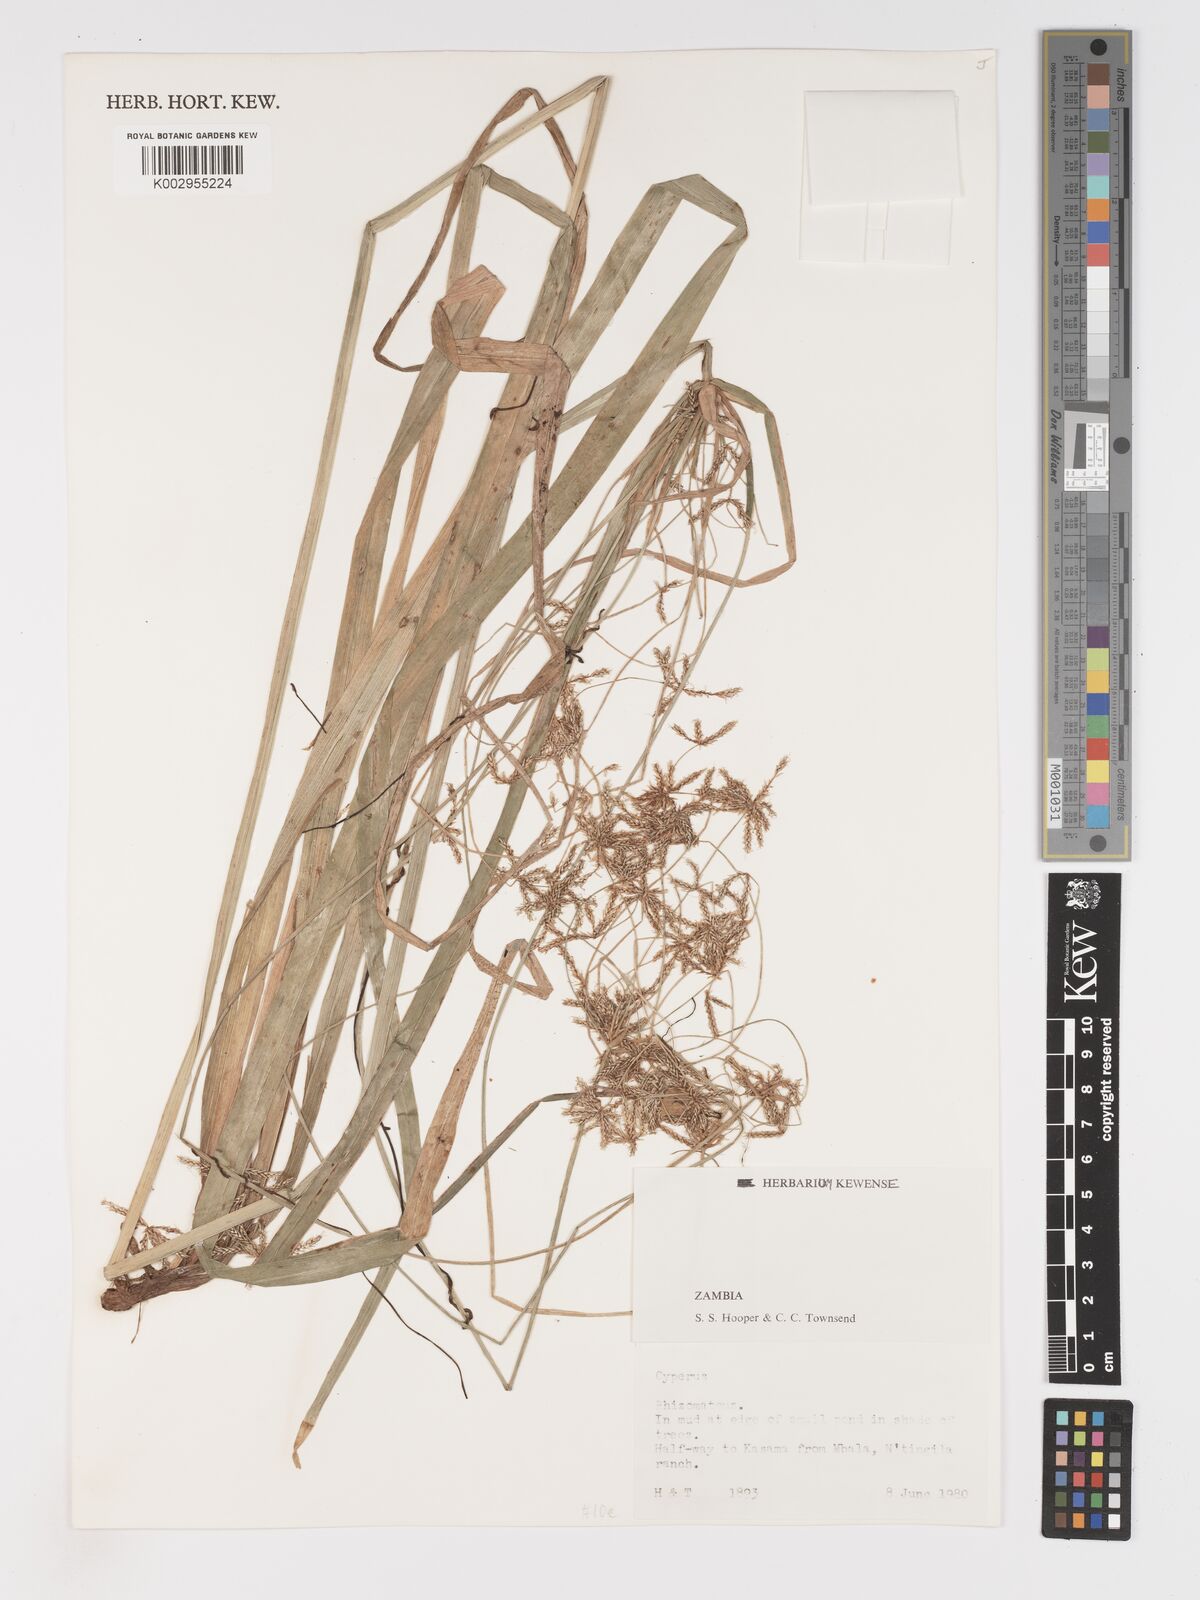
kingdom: Plantae
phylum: Tracheophyta
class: Liliopsida
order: Poales
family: Cyperaceae
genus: Cyperus
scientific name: Cyperus
